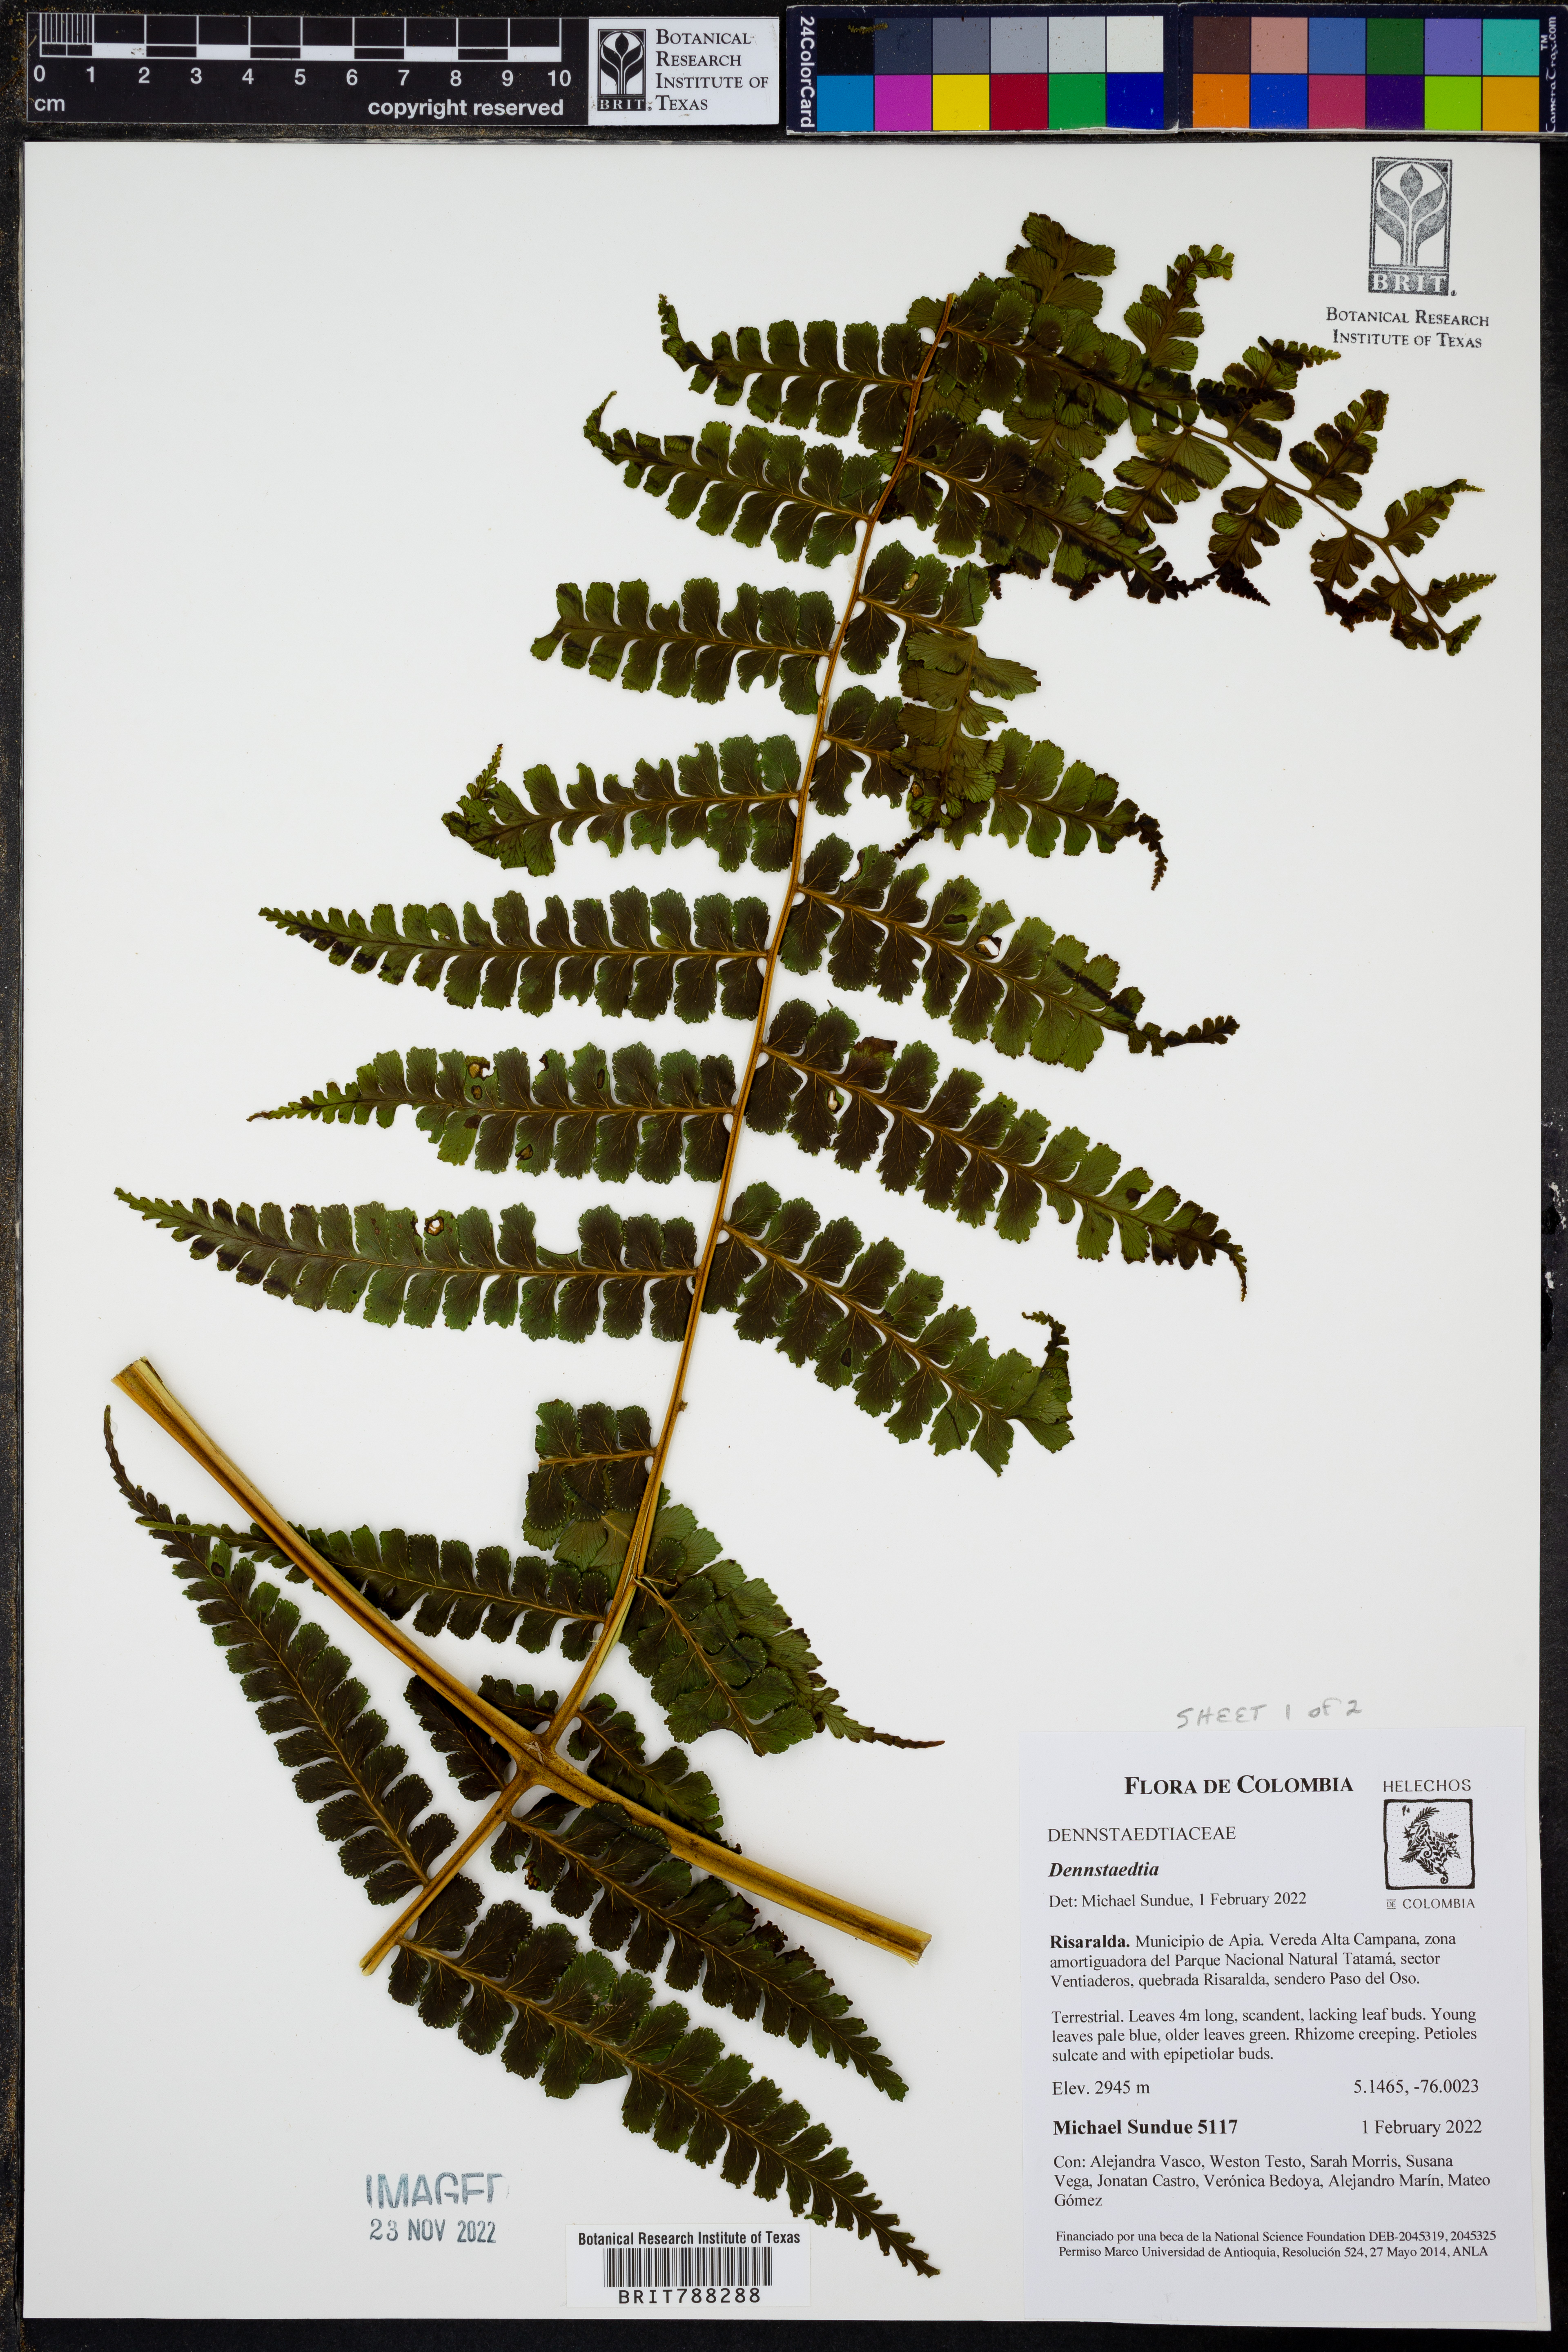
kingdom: Plantae
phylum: Tracheophyta
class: Polypodiopsida
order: Polypodiales
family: Dennstaedtiaceae
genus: Dennstaedtia
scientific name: Dennstaedtia producta
